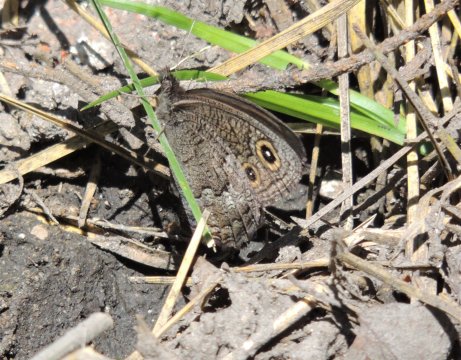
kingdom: Animalia
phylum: Arthropoda
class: Insecta
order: Lepidoptera
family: Nymphalidae
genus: Cercyonis
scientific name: Cercyonis sthenele
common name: Great Basin Wood-Nymph
